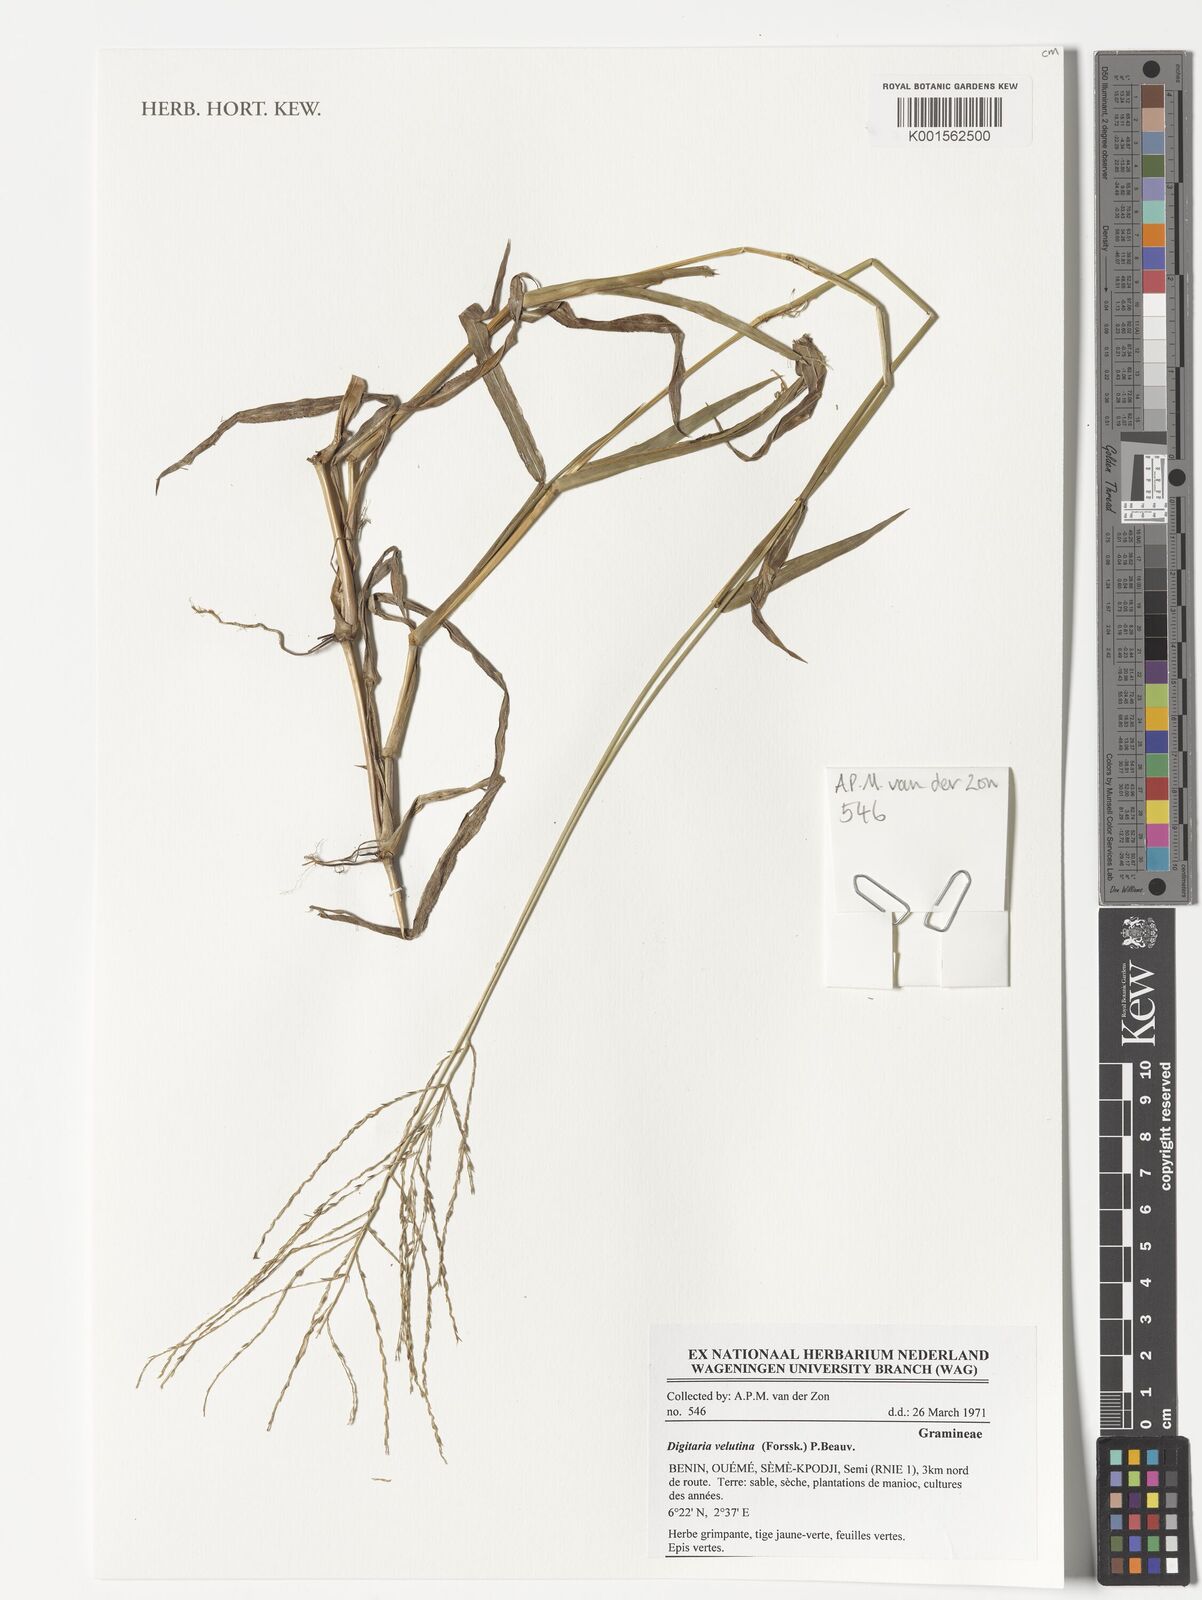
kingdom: Plantae
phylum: Tracheophyta
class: Liliopsida
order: Poales
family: Poaceae
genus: Digitaria
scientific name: Digitaria velutina
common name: Long-plume finger grass
